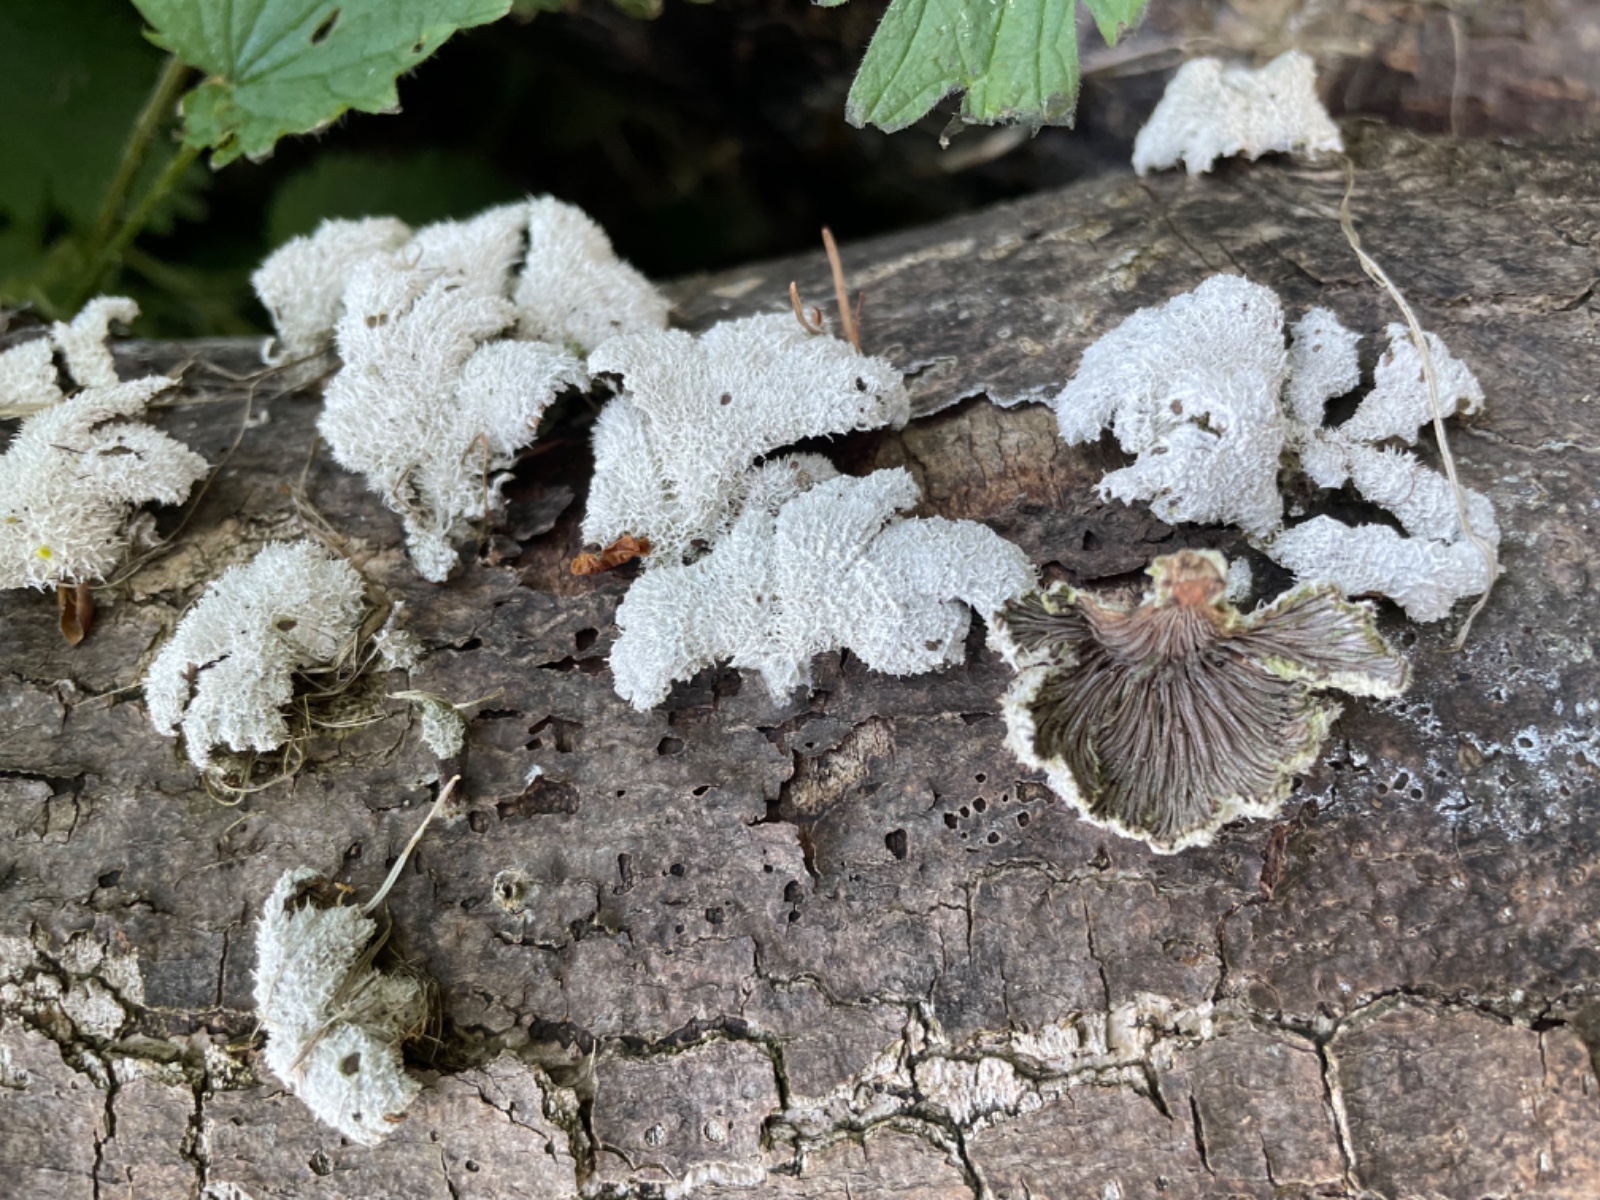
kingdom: Fungi
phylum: Basidiomycota
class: Agaricomycetes
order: Agaricales
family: Schizophyllaceae
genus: Schizophyllum
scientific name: Schizophyllum
